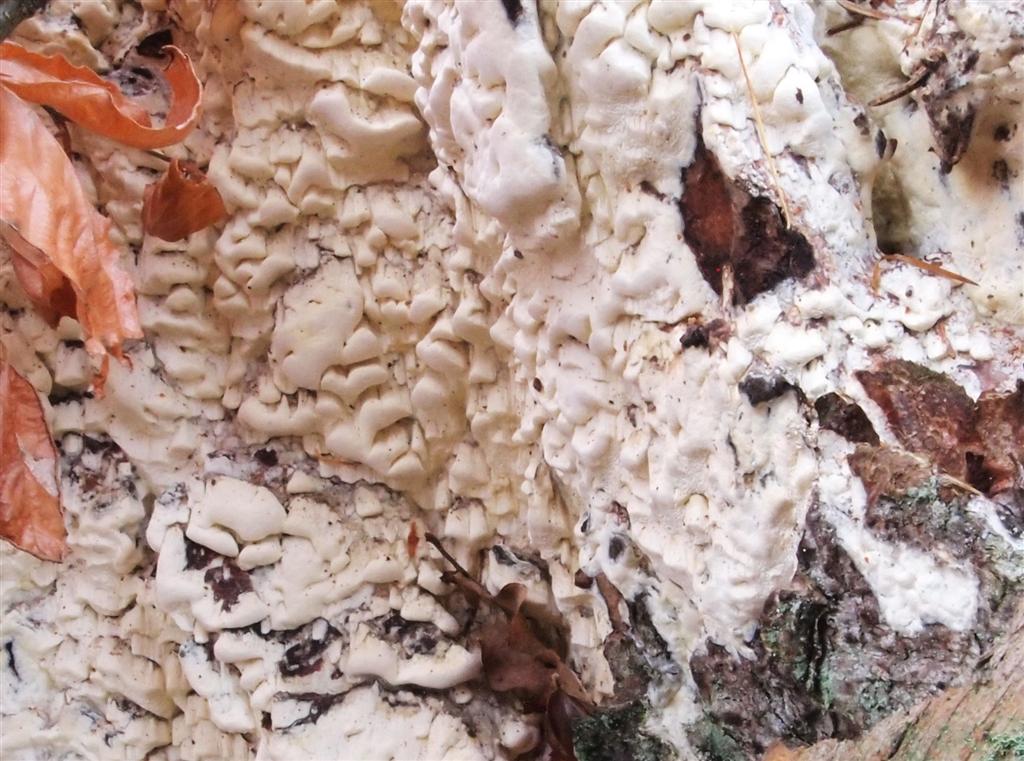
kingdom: Fungi
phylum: Basidiomycota
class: Agaricomycetes
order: Polyporales
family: Fomitopsidaceae
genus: Daedalea
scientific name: Daedalea xantha
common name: gul sejporesvamp
